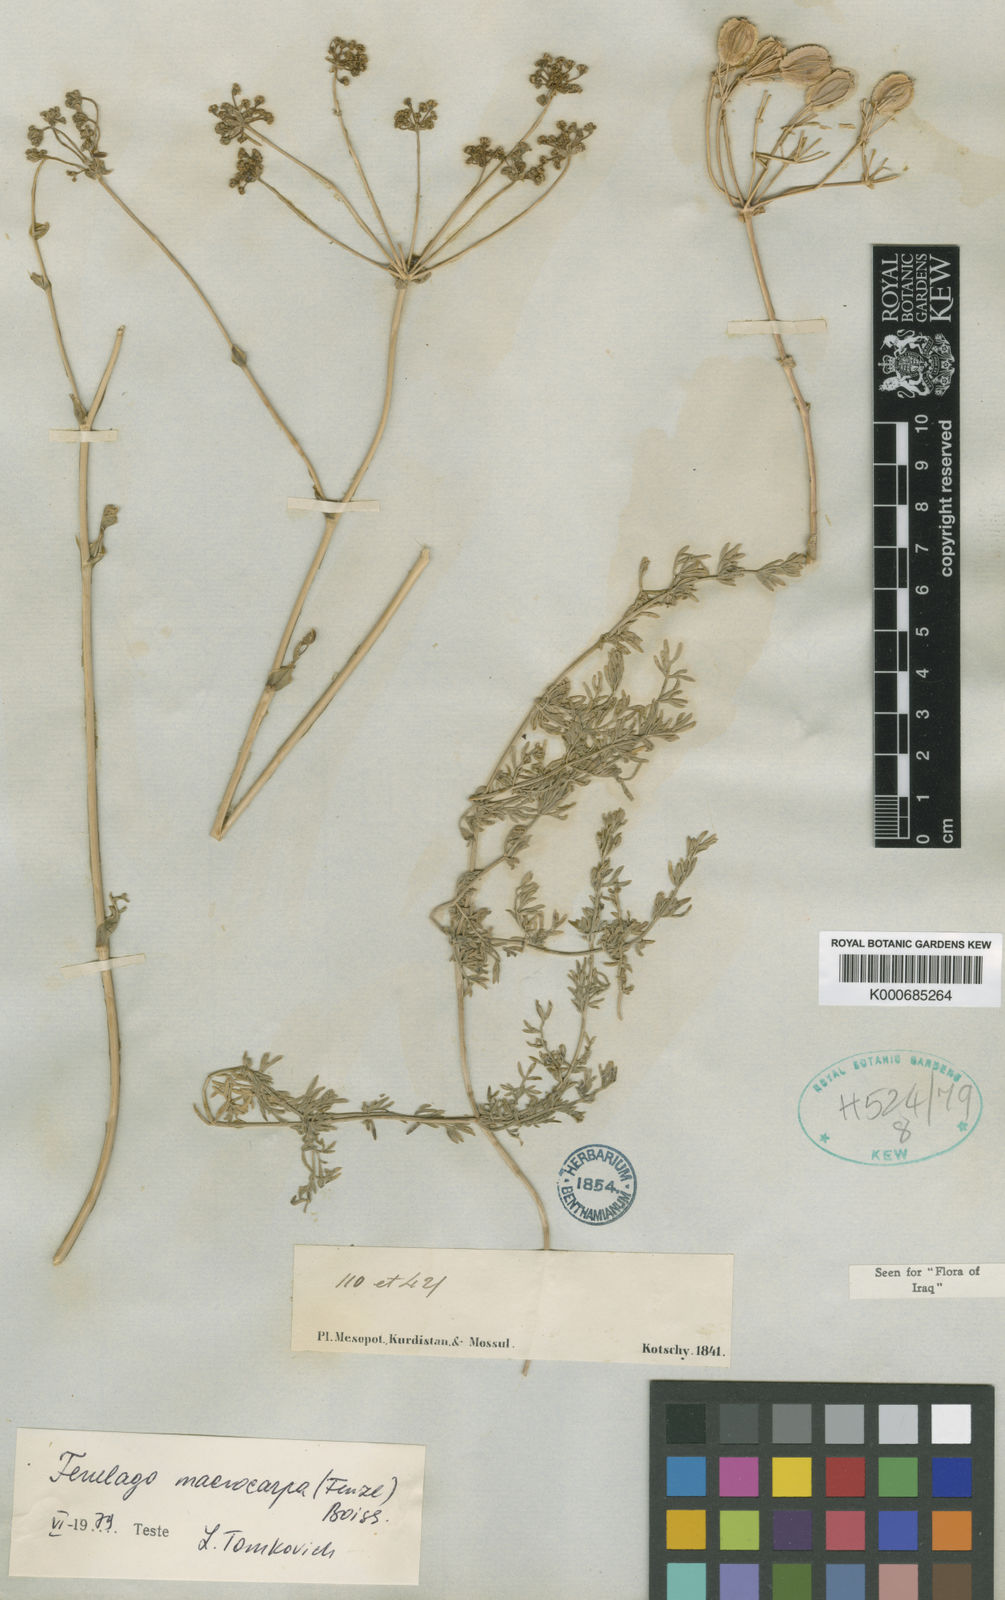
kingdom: Plantae
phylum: Tracheophyta
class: Magnoliopsida
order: Apiales
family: Apiaceae
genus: Ferulago
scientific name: Ferulago macrocarpa
